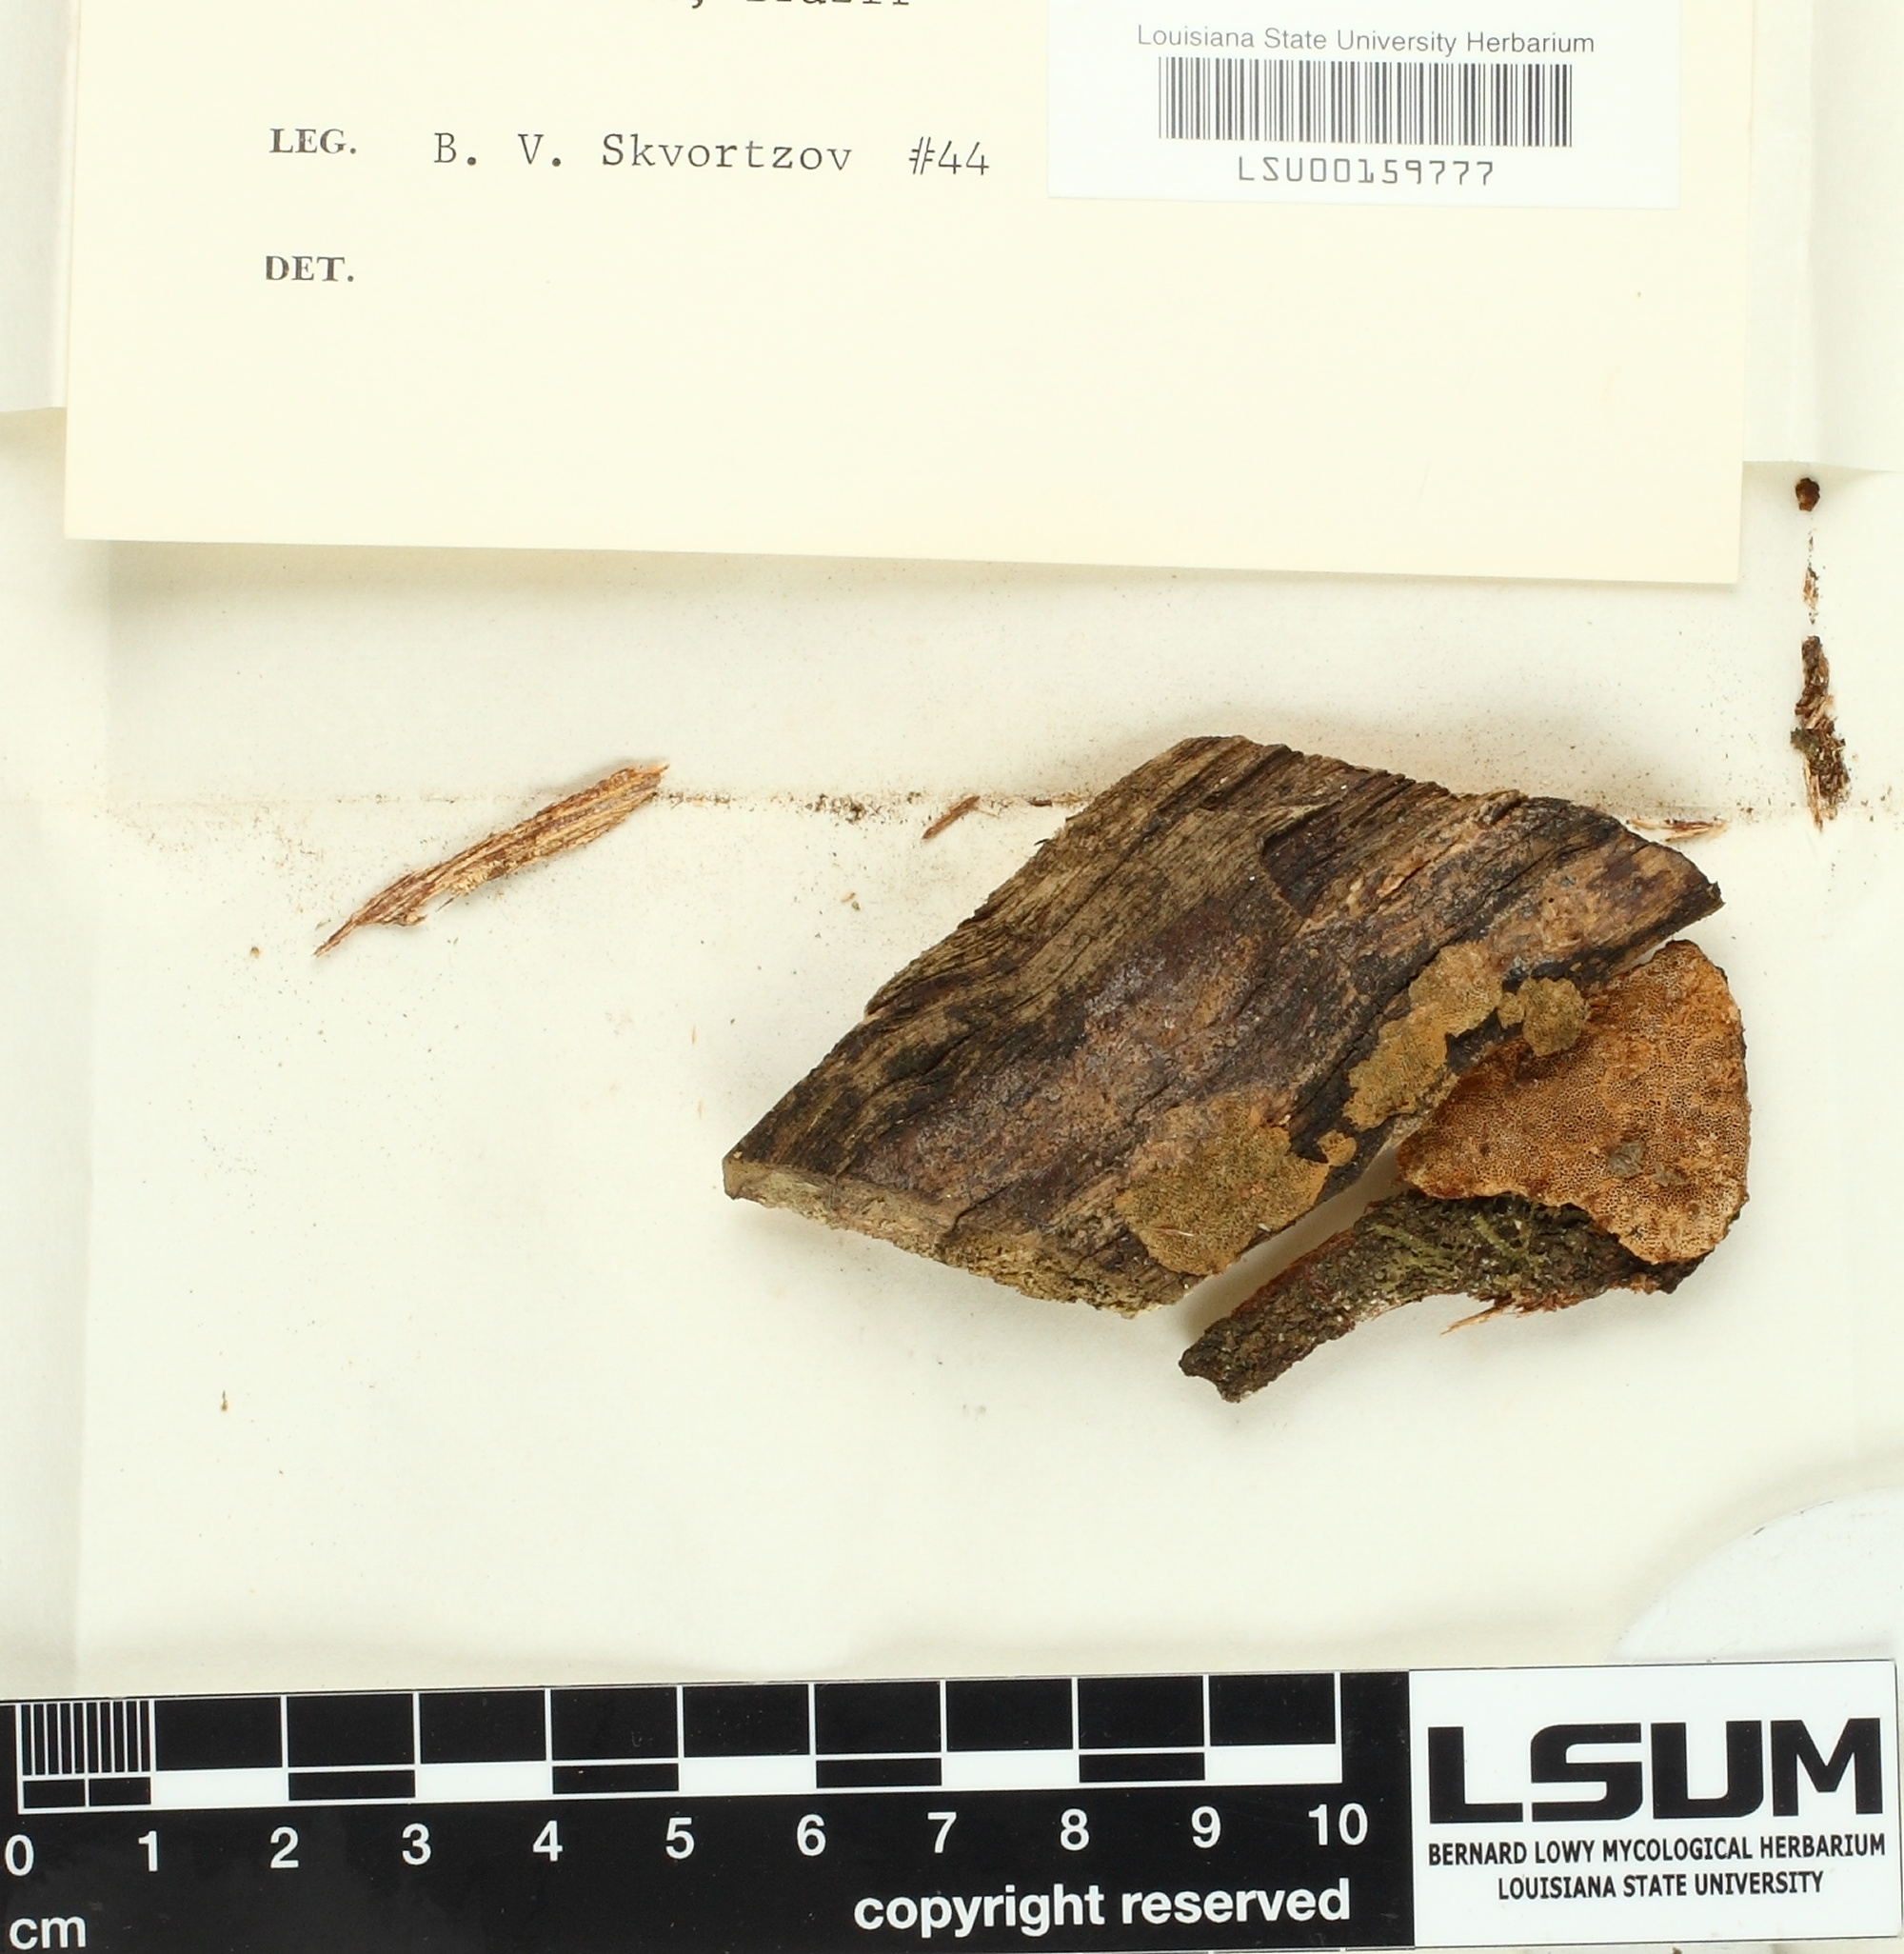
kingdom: Fungi
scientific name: Fungi
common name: Fungi
